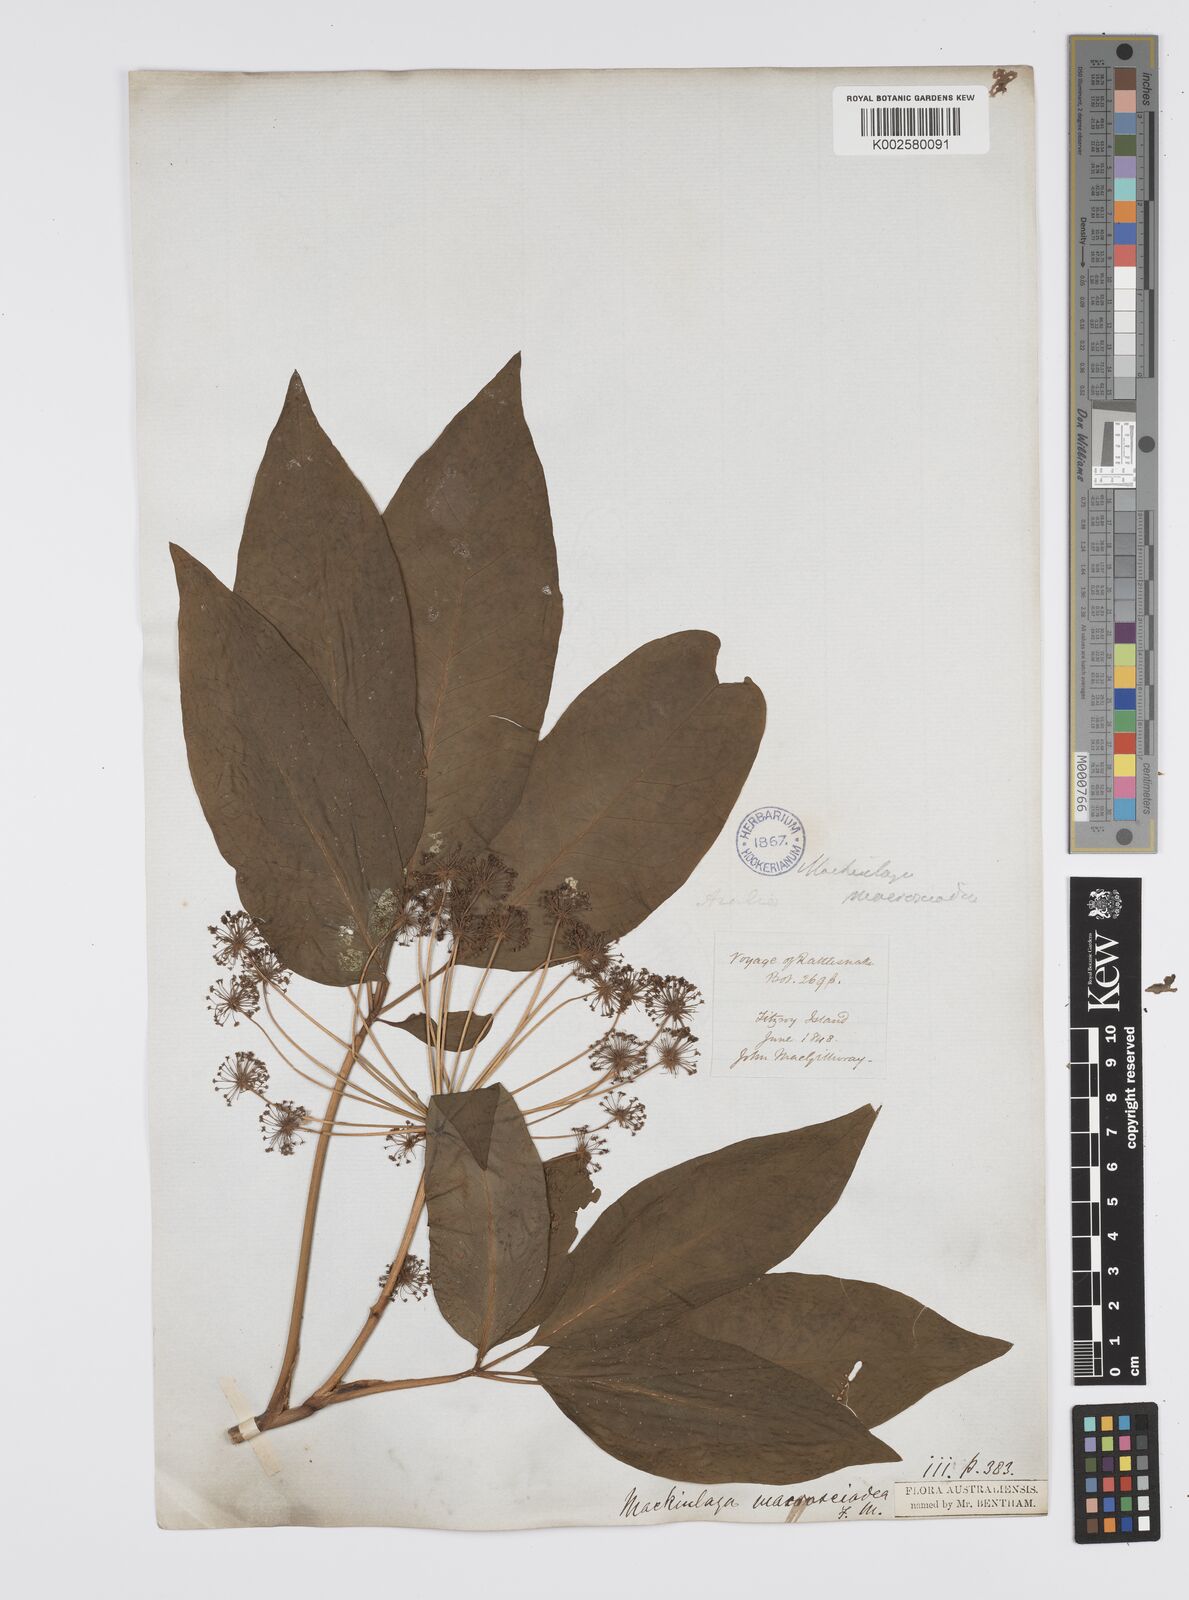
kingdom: Plantae
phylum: Tracheophyta
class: Magnoliopsida
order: Apiales
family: Apiaceae
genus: Mackinlaya
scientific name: Mackinlaya macrosciadea
